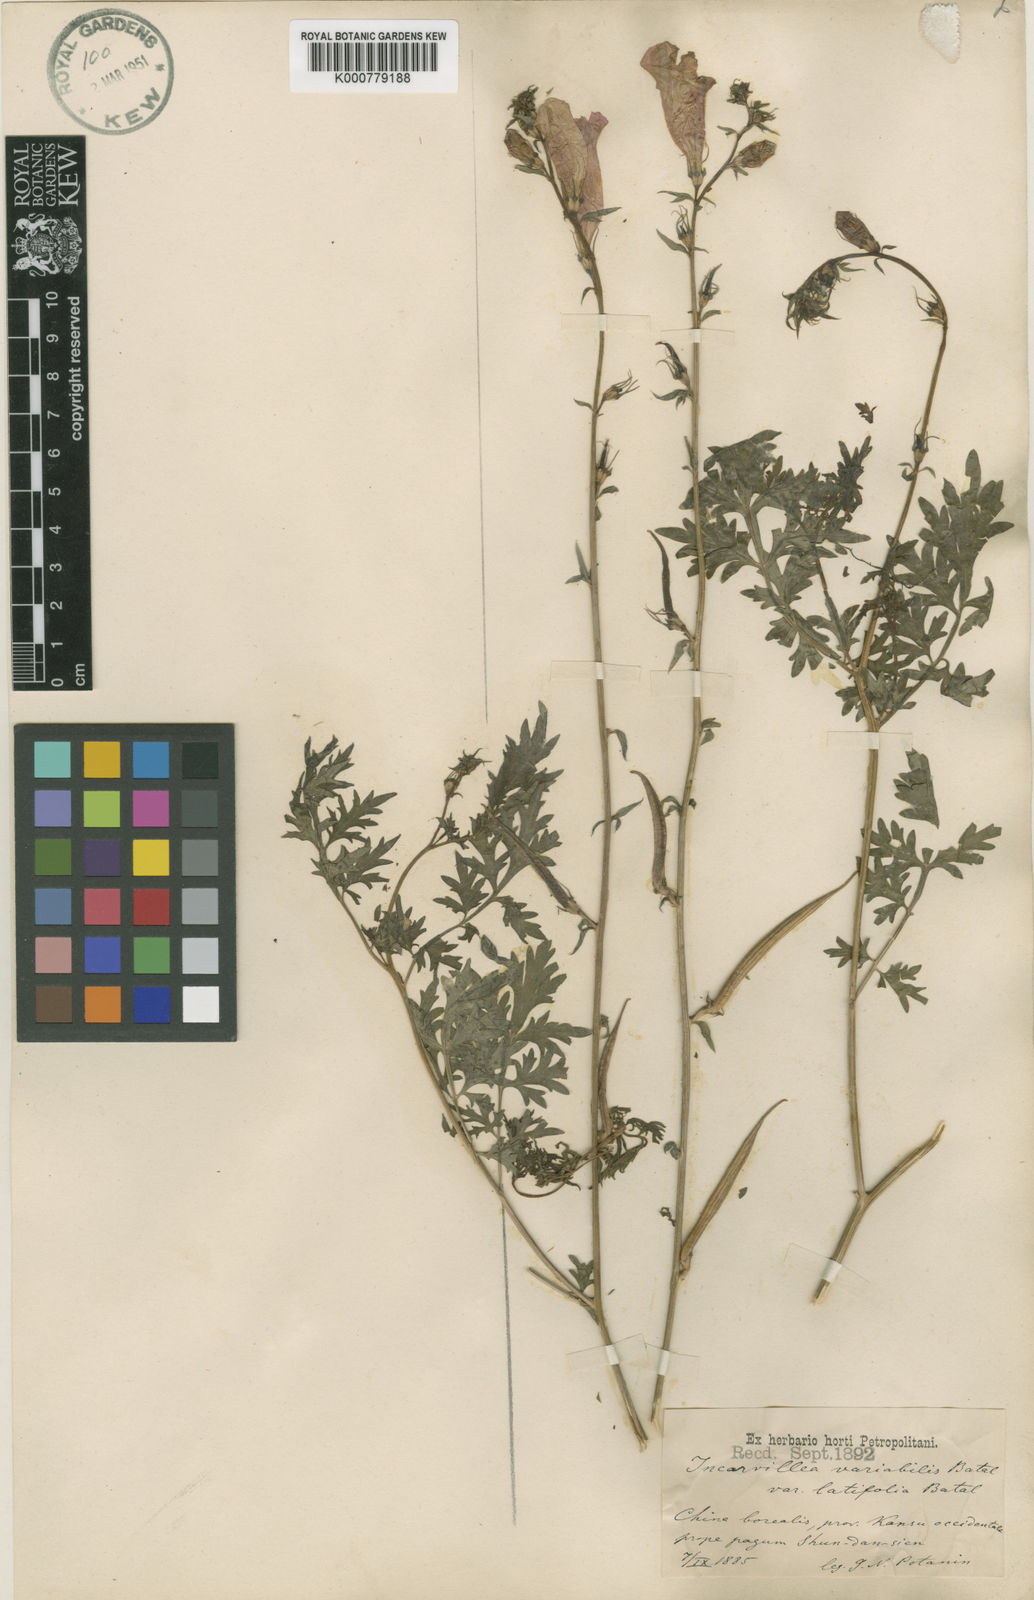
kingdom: Plantae
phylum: Tracheophyta
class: Magnoliopsida
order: Lamiales
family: Bignoniaceae
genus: Incarvillea
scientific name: Incarvillea sinensis
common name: Trumpet-flower
